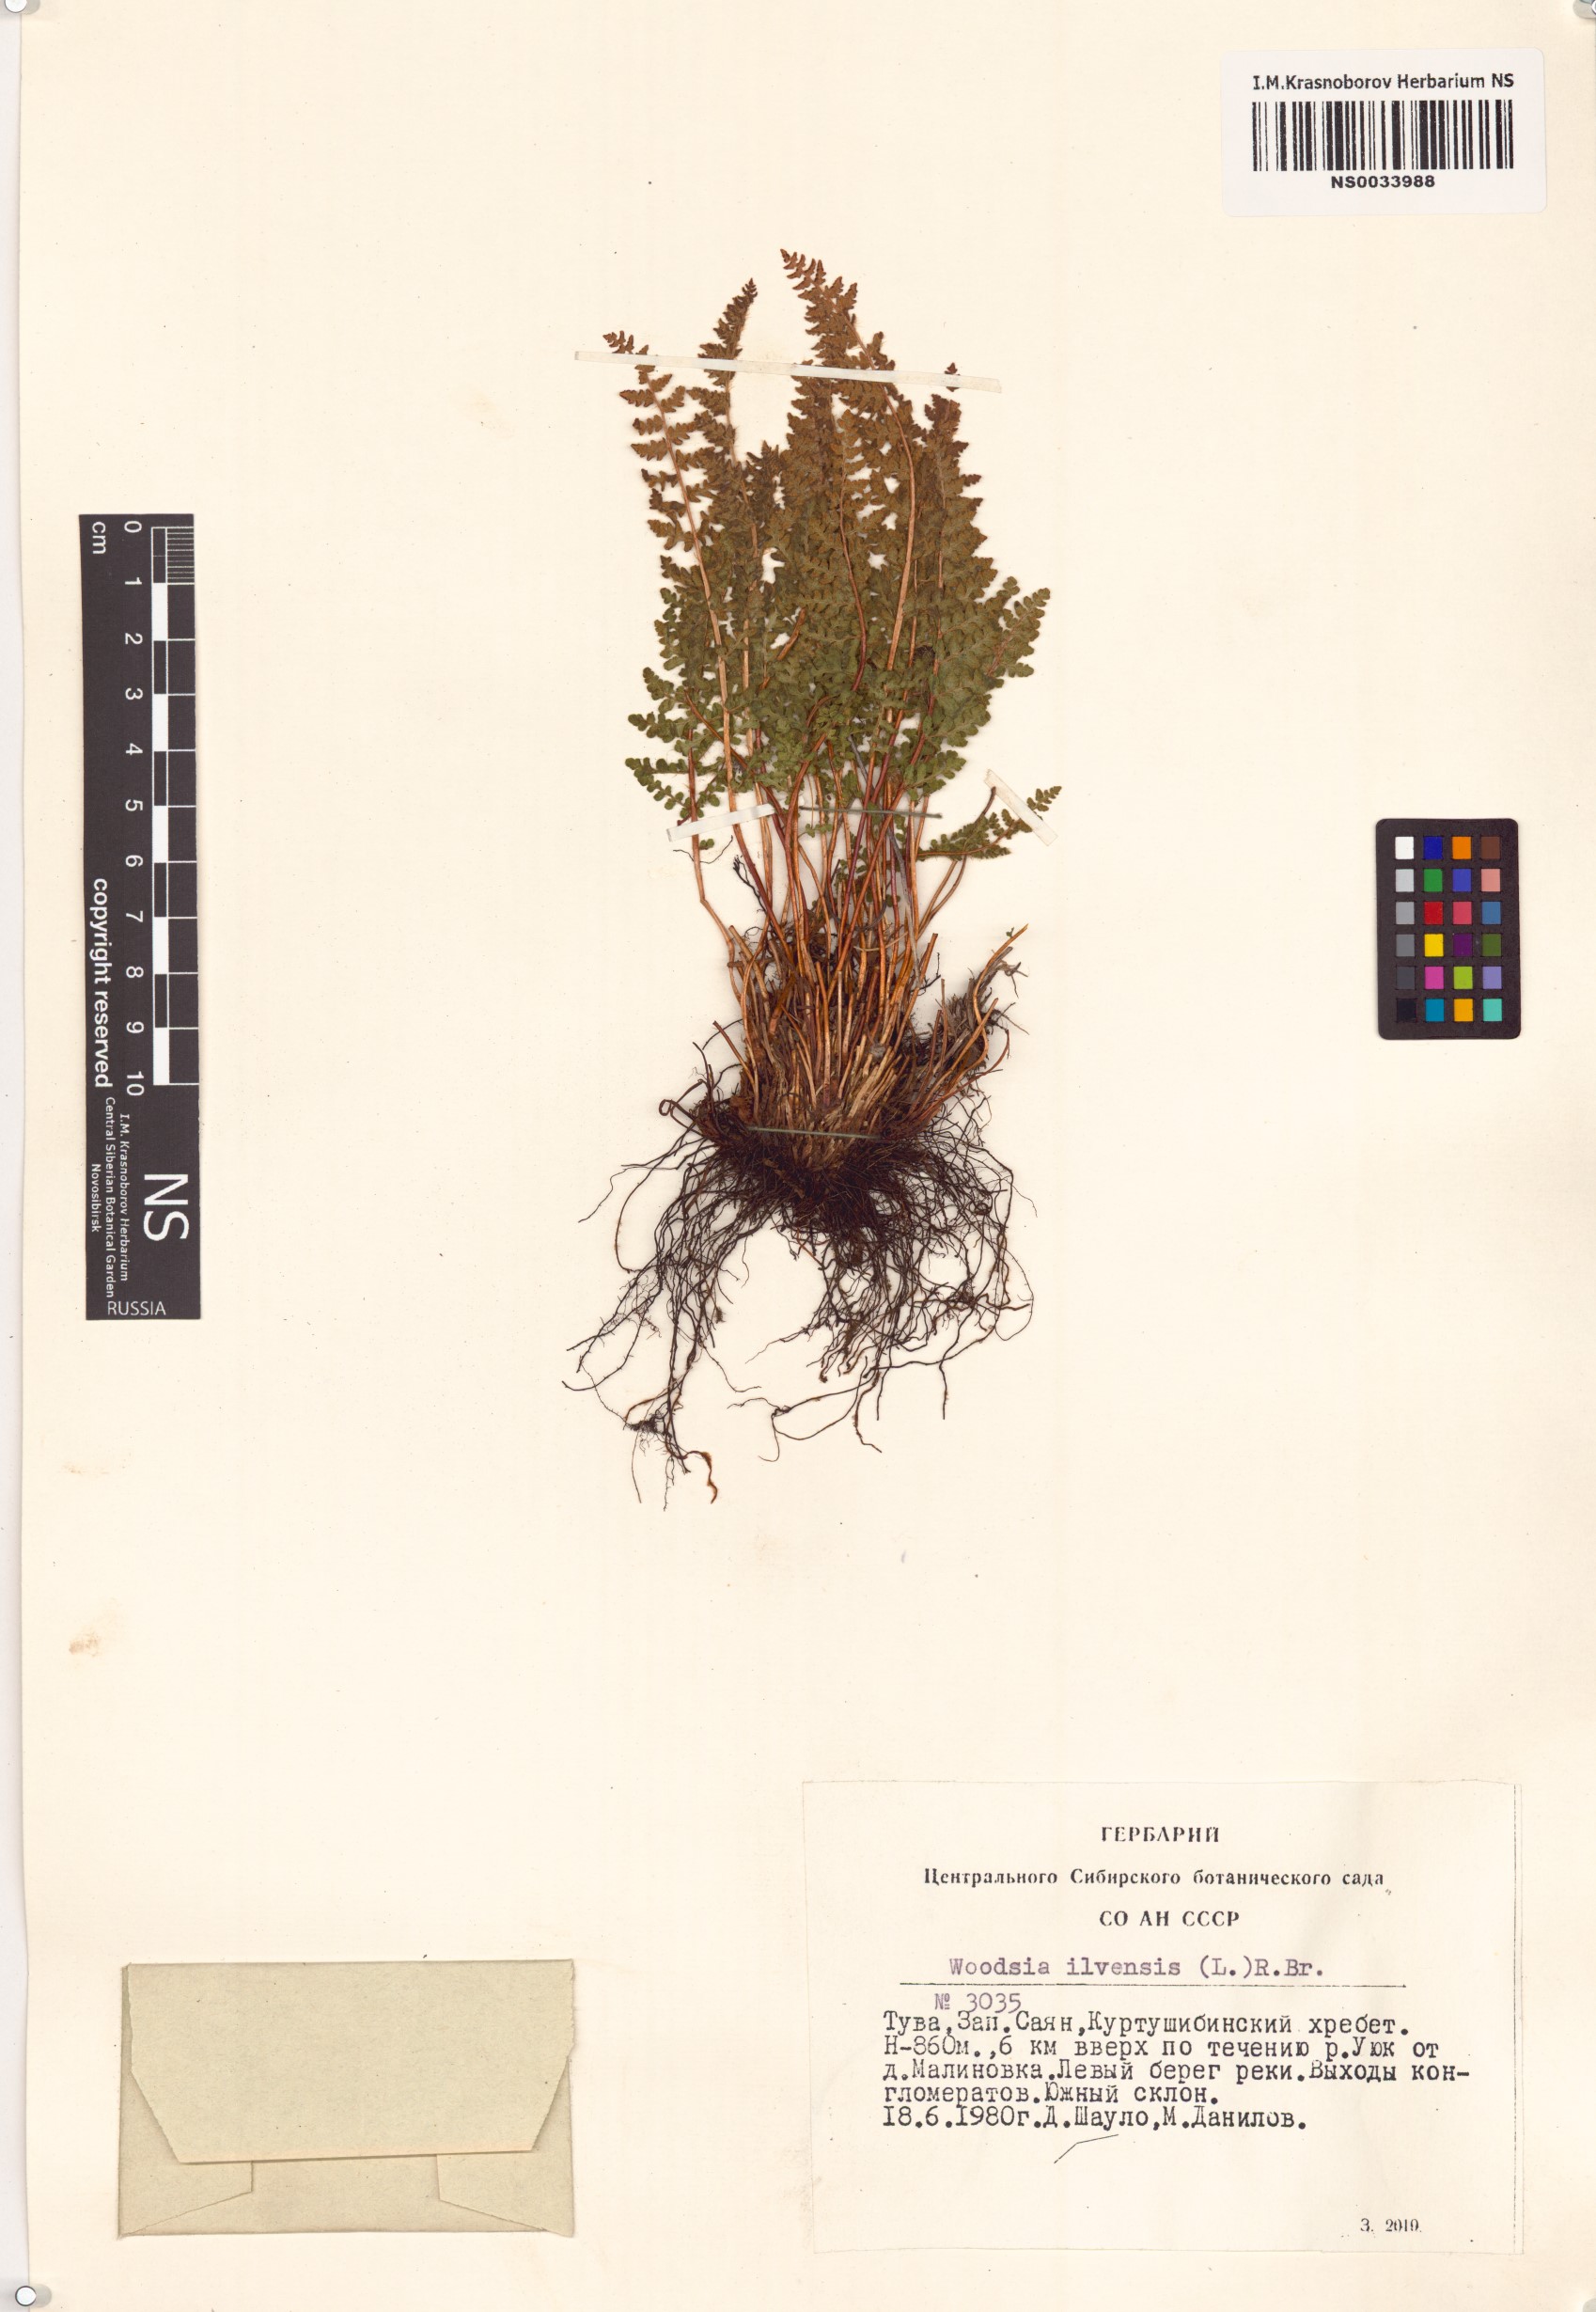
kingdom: Plantae
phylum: Tracheophyta
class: Polypodiopsida
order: Polypodiales
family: Woodsiaceae
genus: Woodsia
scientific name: Woodsia ilvensis
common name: Fragrant woodsia
